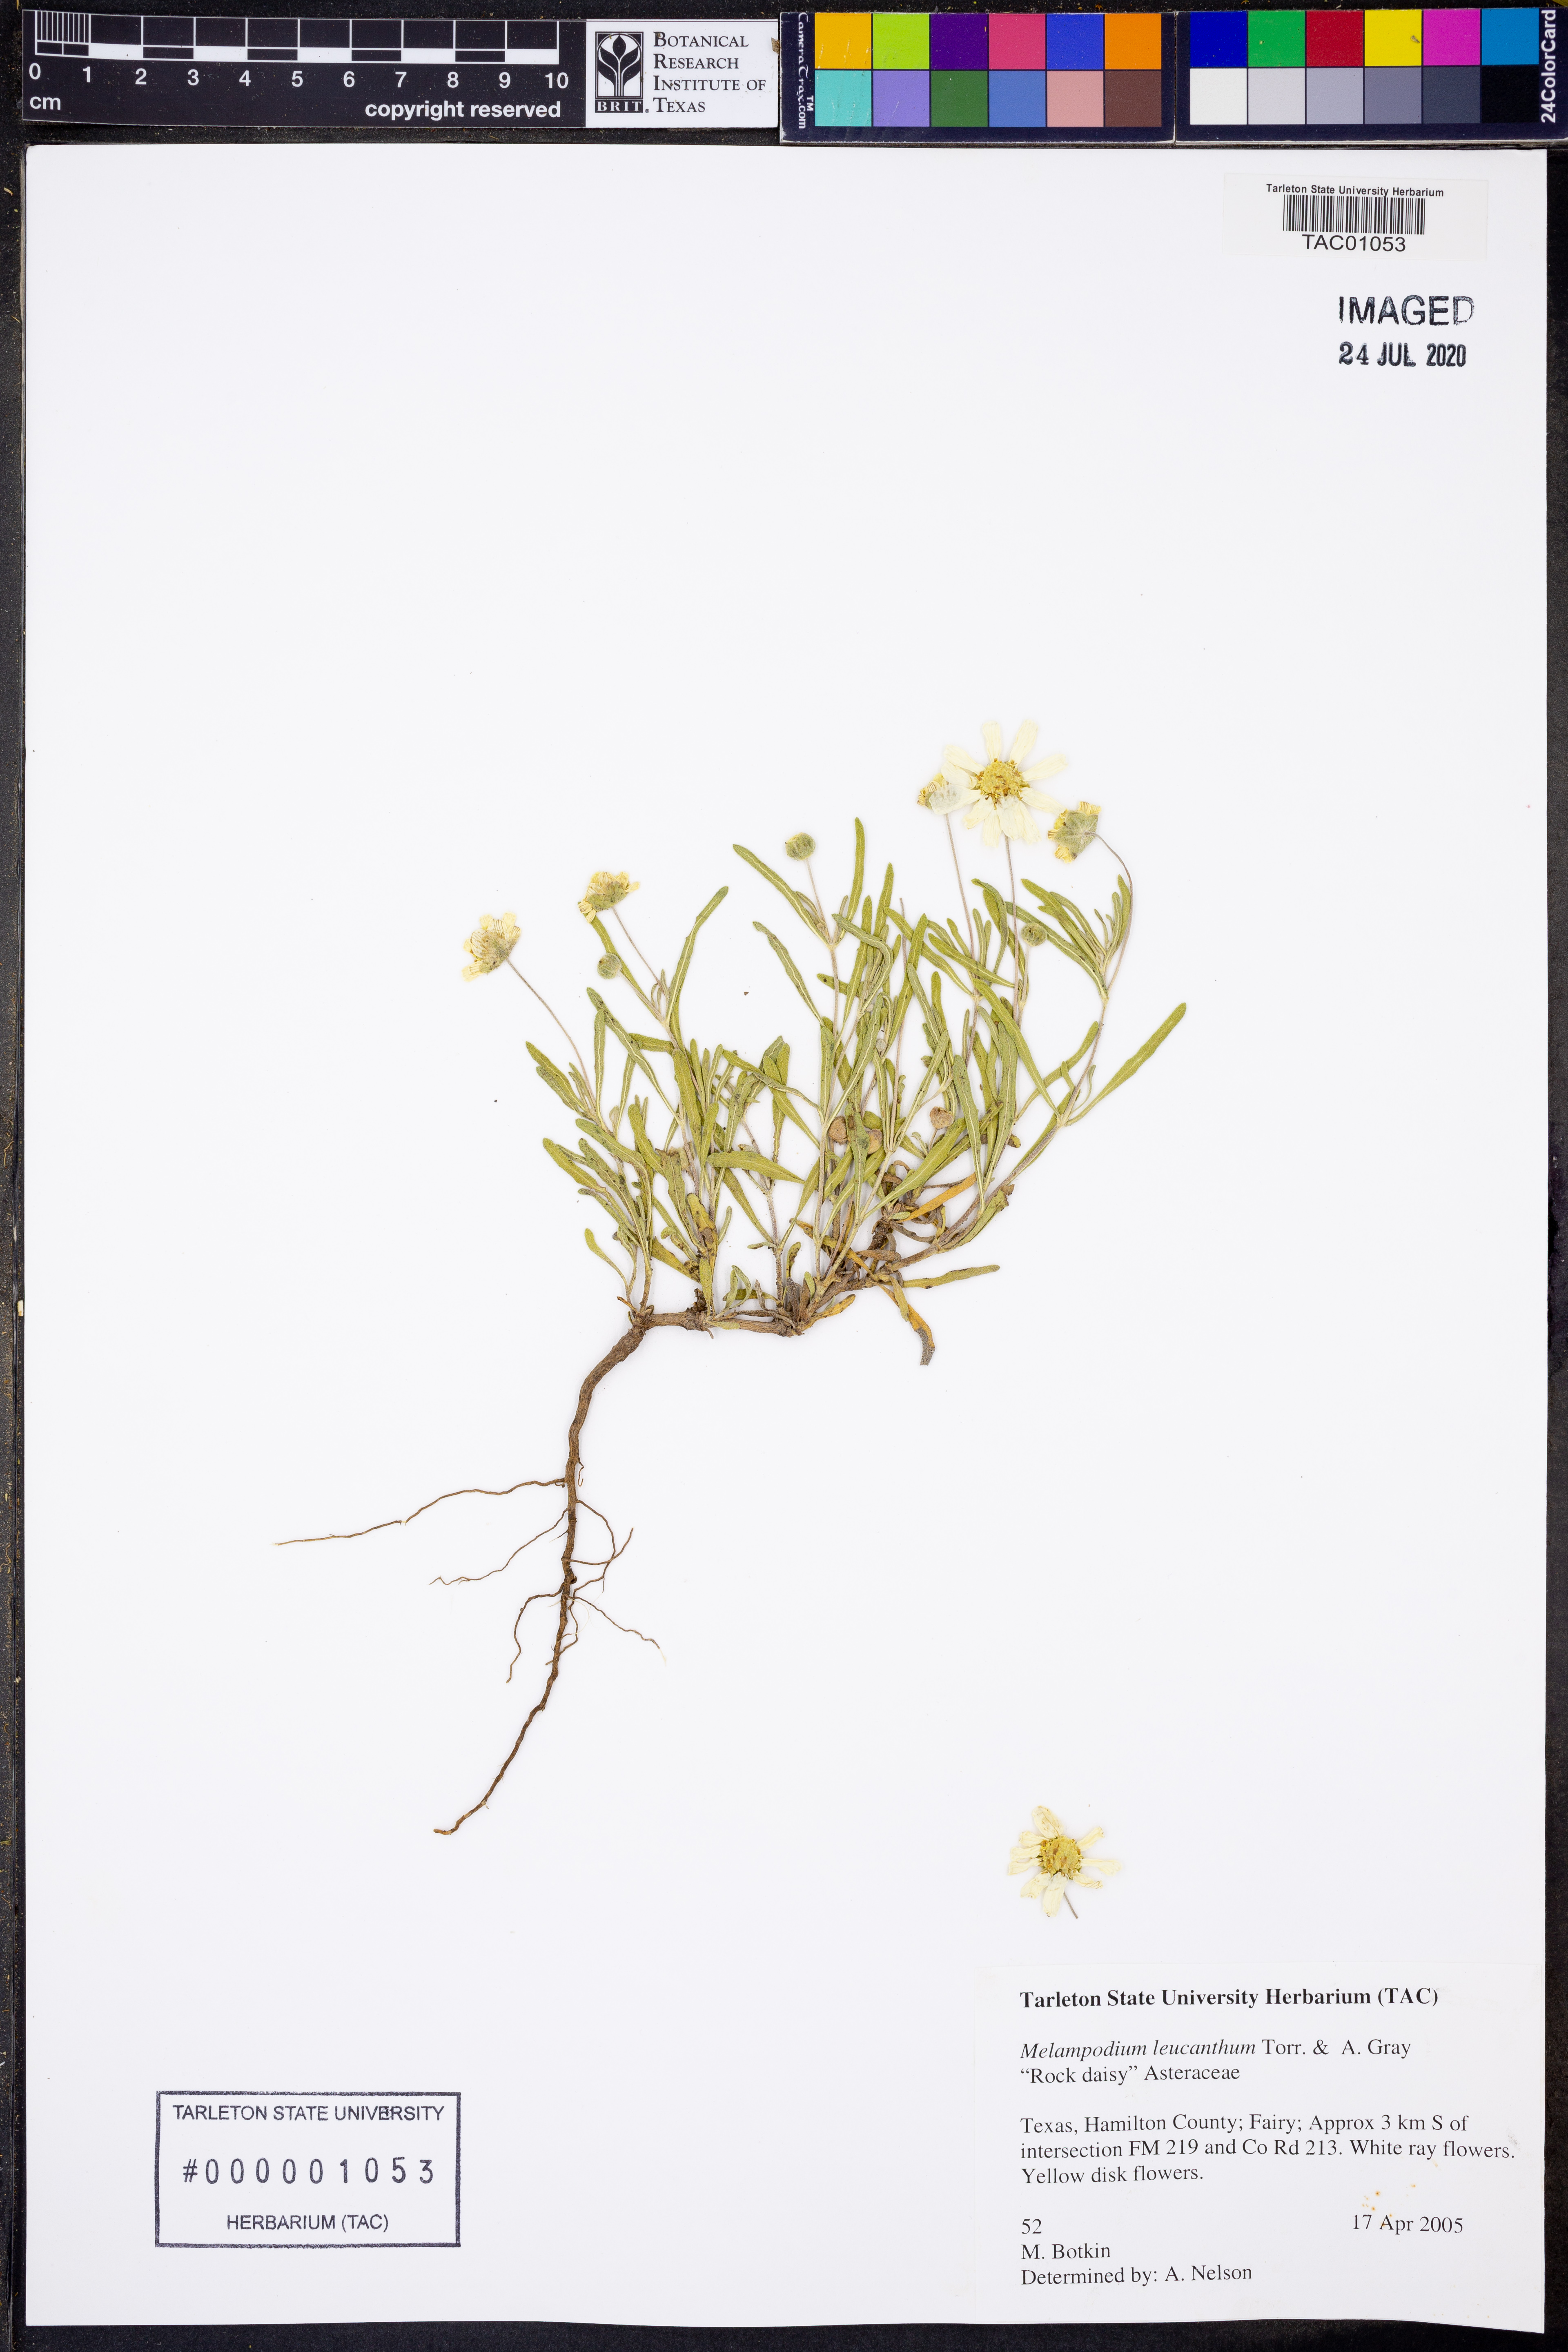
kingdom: Plantae
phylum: Tracheophyta
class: Magnoliopsida
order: Asterales
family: Asteraceae
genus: Melampodium
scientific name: Melampodium leucanthum
